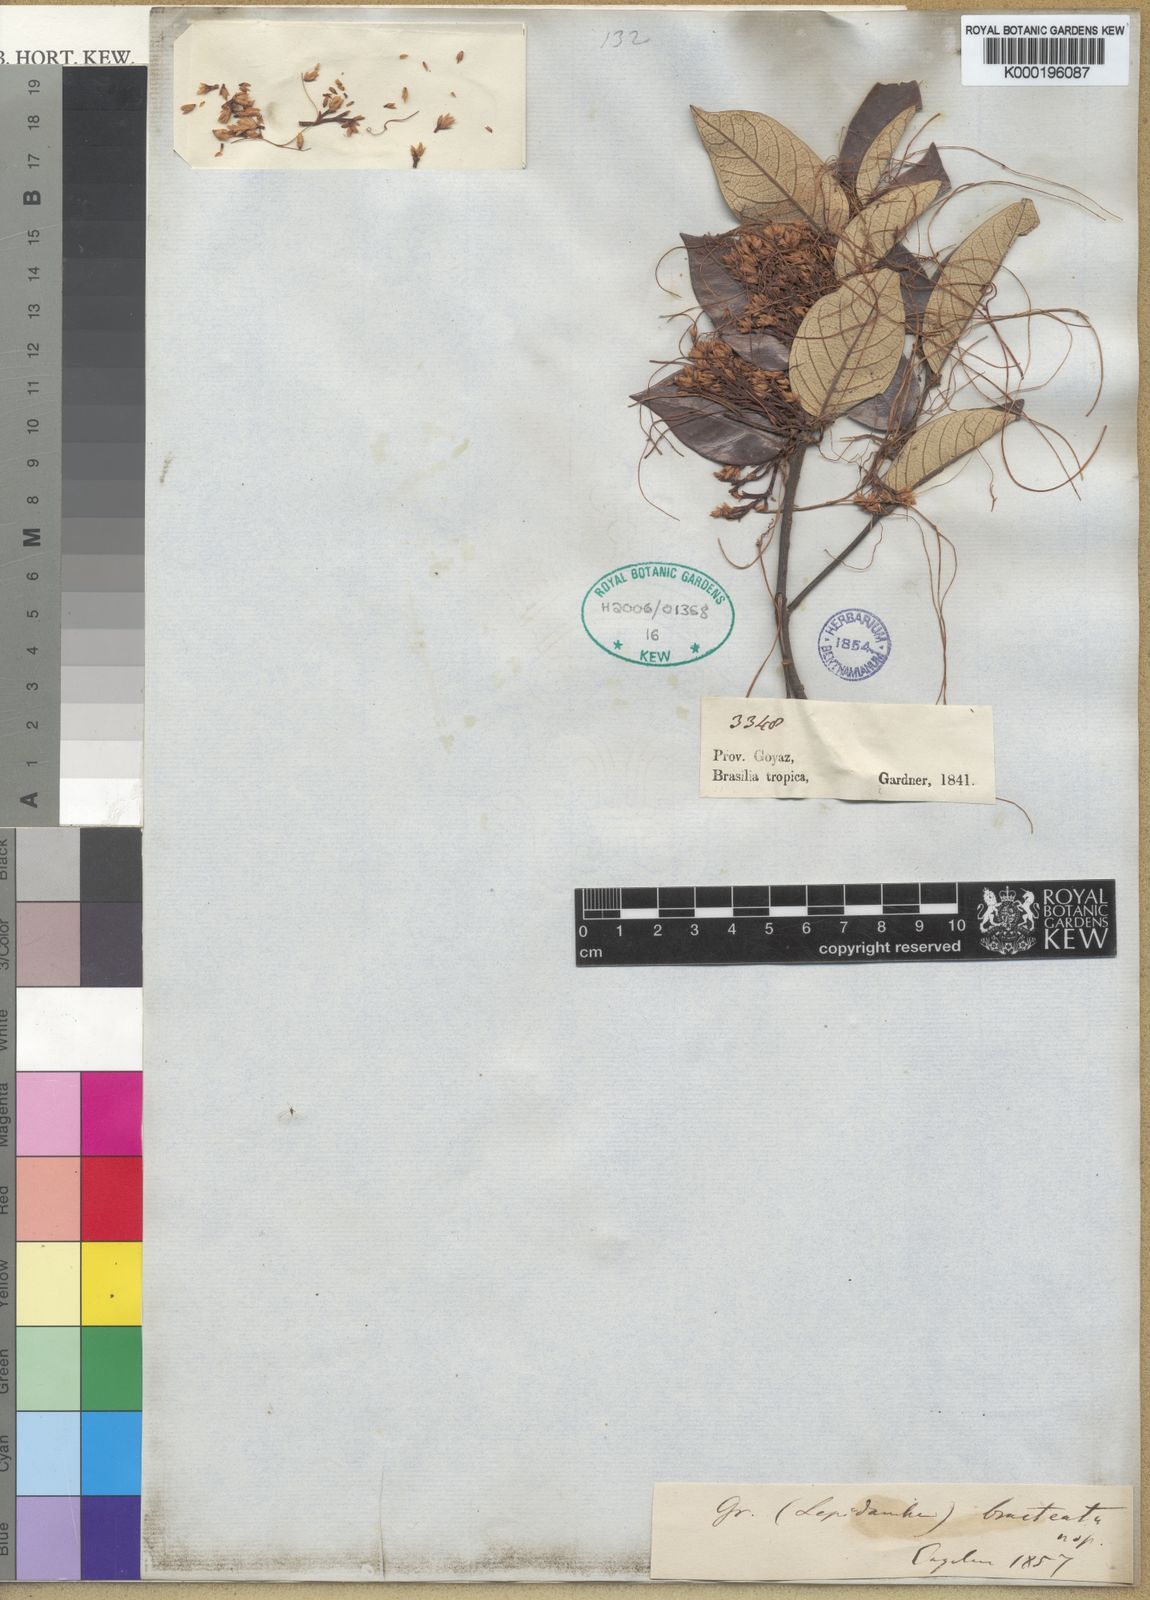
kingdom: Plantae
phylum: Tracheophyta
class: Magnoliopsida
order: Solanales
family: Convolvulaceae
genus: Cuscuta
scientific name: Cuscuta bracteata
